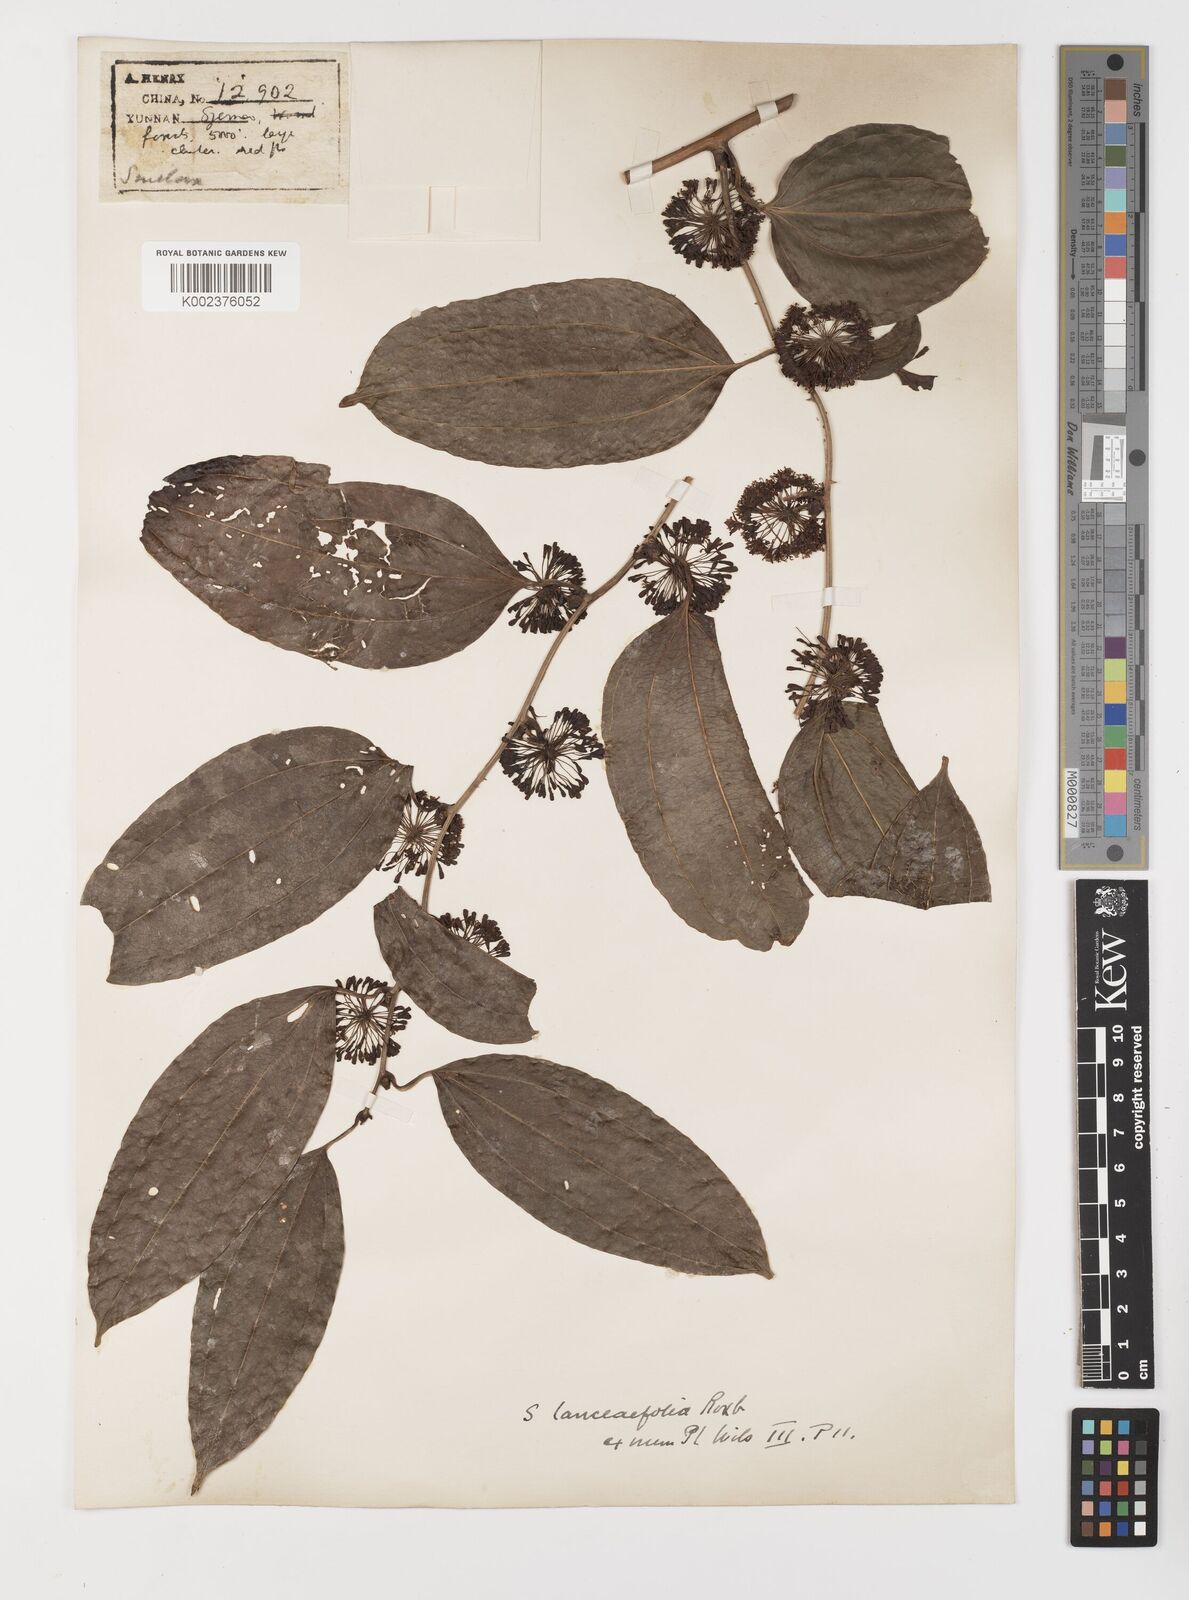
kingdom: Plantae
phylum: Tracheophyta
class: Liliopsida
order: Liliales
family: Smilacaceae
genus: Smilax
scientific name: Smilax lanceifolia
